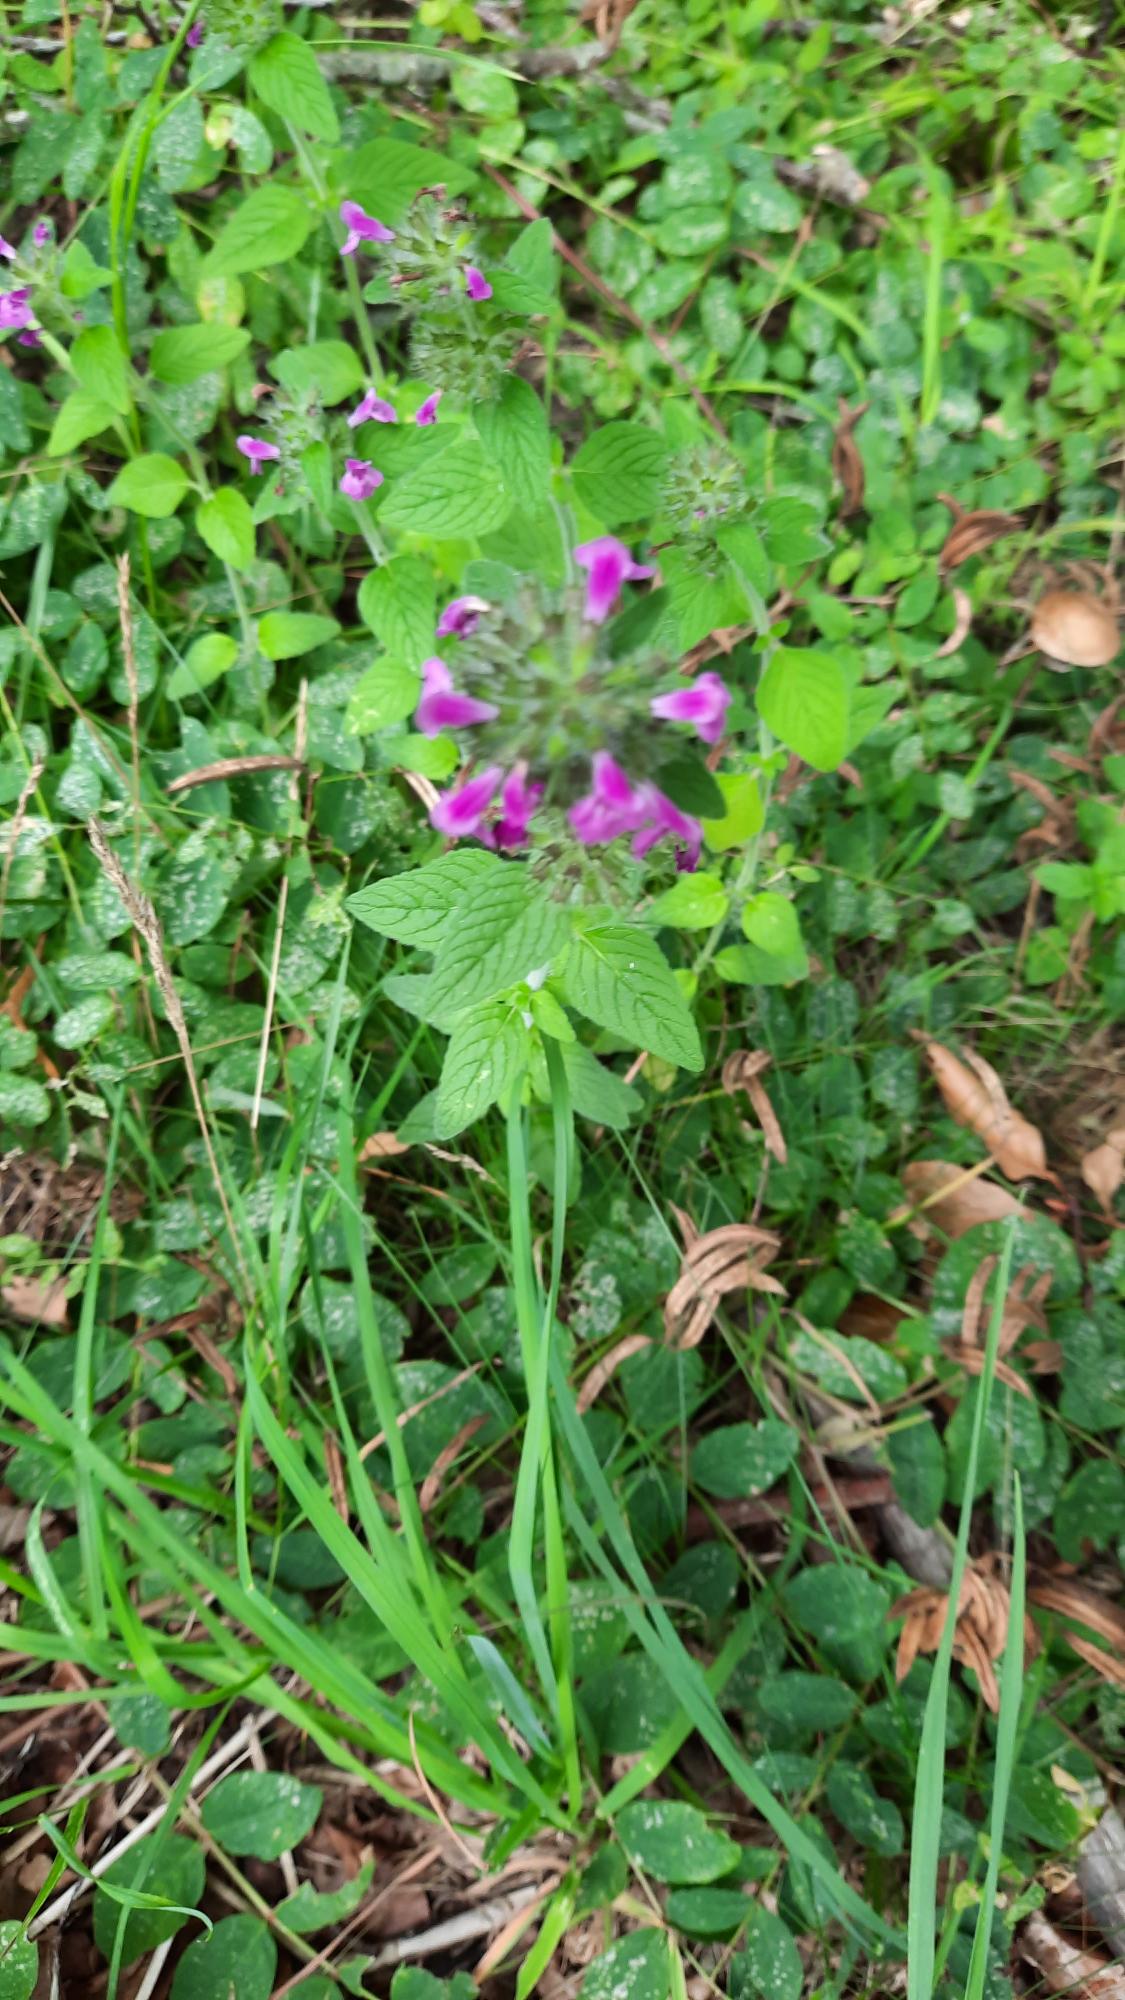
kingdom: Plantae
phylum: Tracheophyta
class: Magnoliopsida
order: Lamiales
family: Lamiaceae
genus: Clinopodium
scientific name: Clinopodium vulgare
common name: Kransbørste
